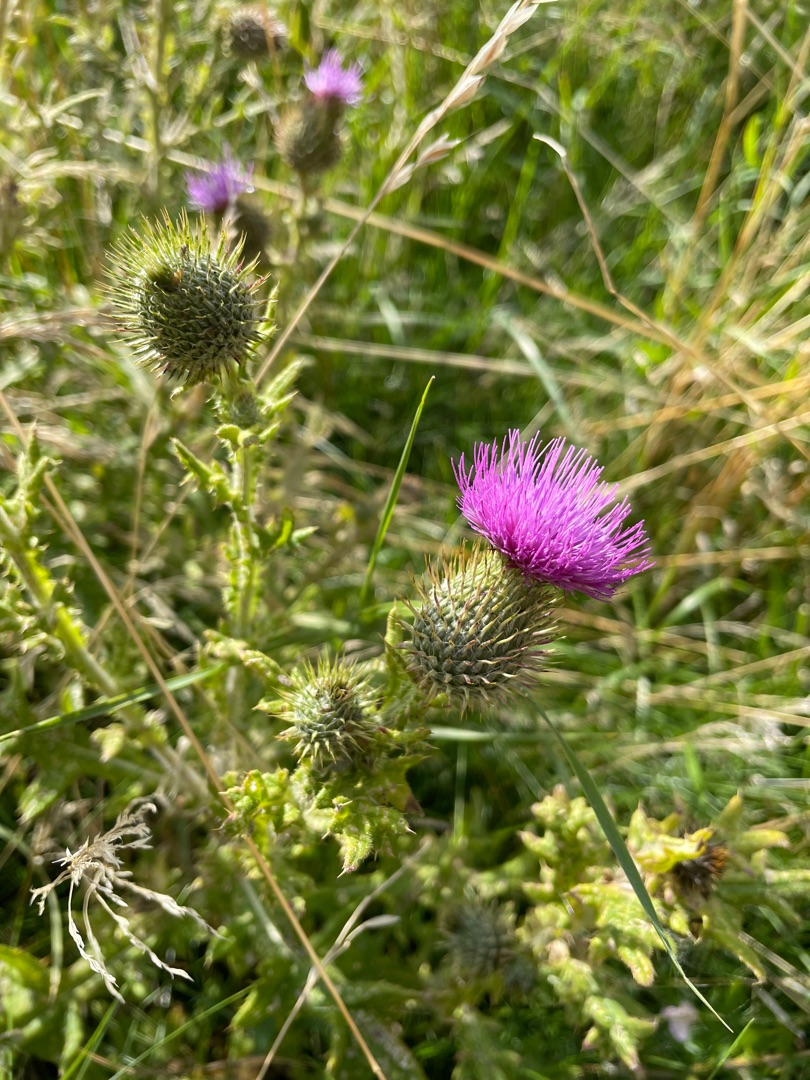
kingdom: Plantae
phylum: Tracheophyta
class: Magnoliopsida
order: Asterales
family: Asteraceae
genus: Cirsium
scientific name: Cirsium vulgare
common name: Horse-tidsel
